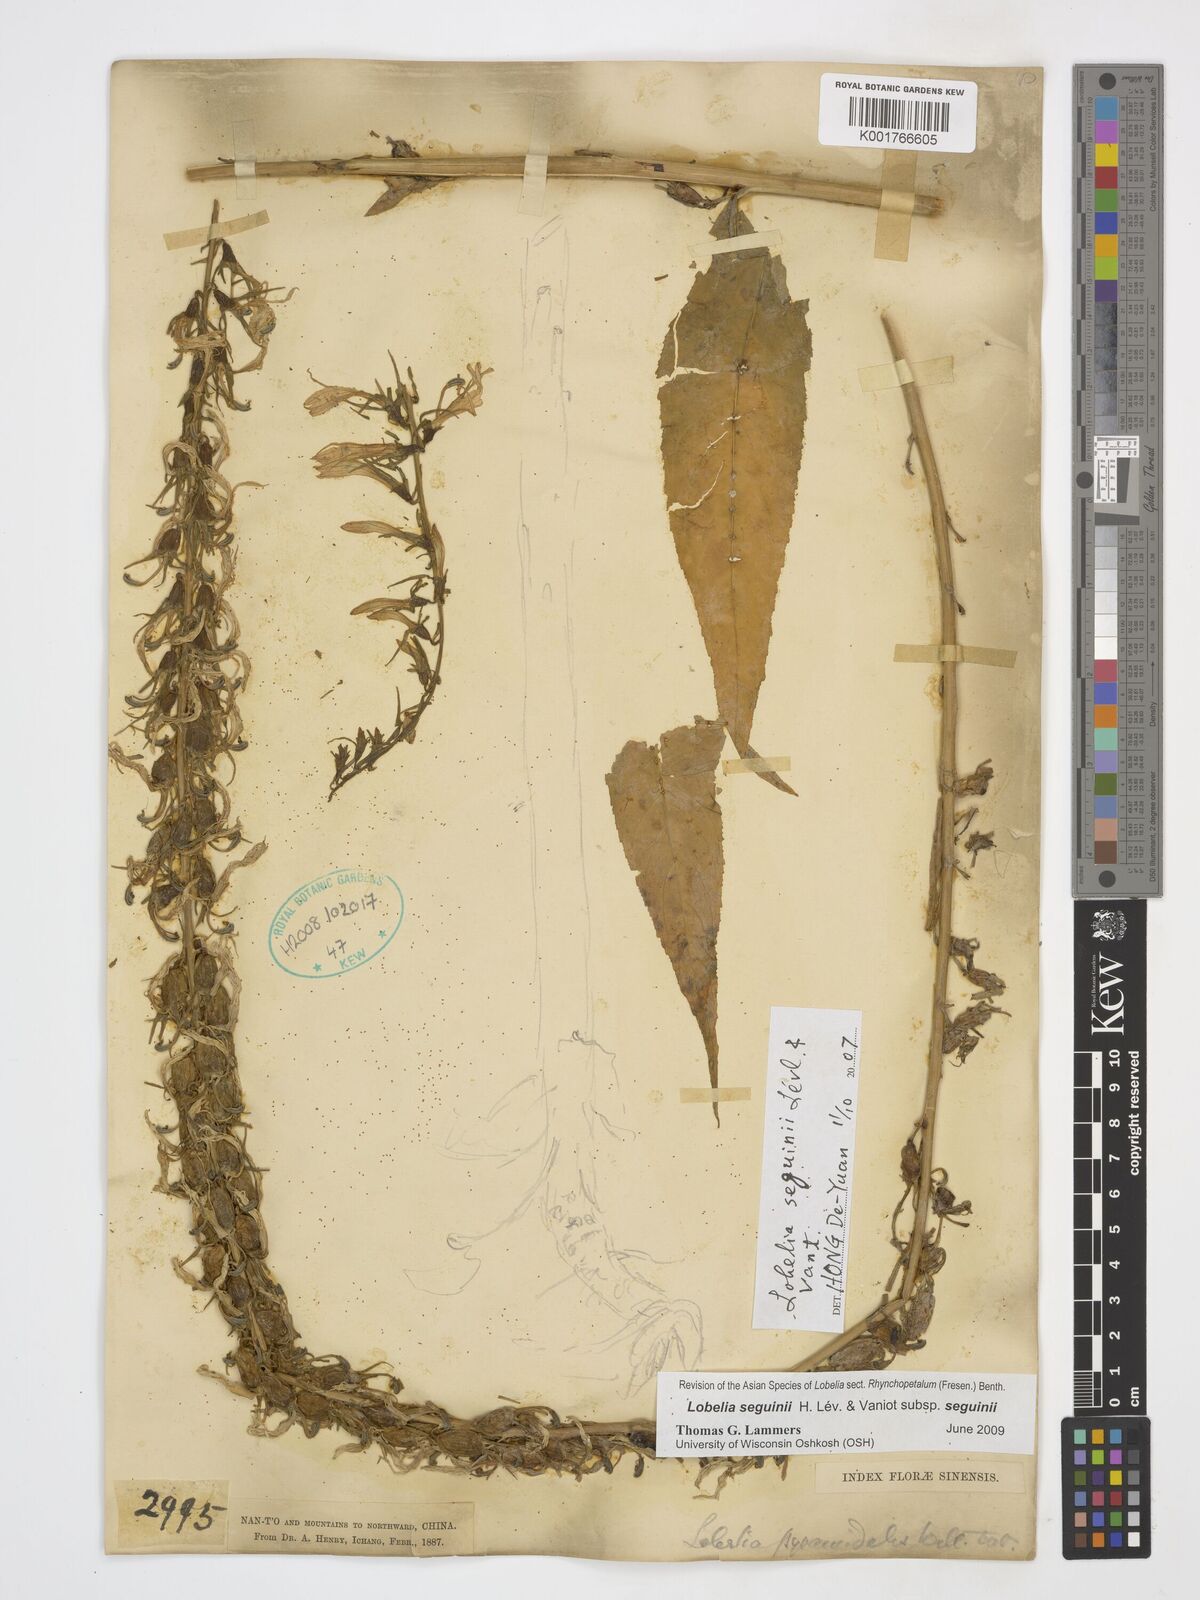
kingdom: Plantae
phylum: Tracheophyta
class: Magnoliopsida
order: Asterales
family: Campanulaceae
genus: Lobelia
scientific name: Lobelia seguinii
